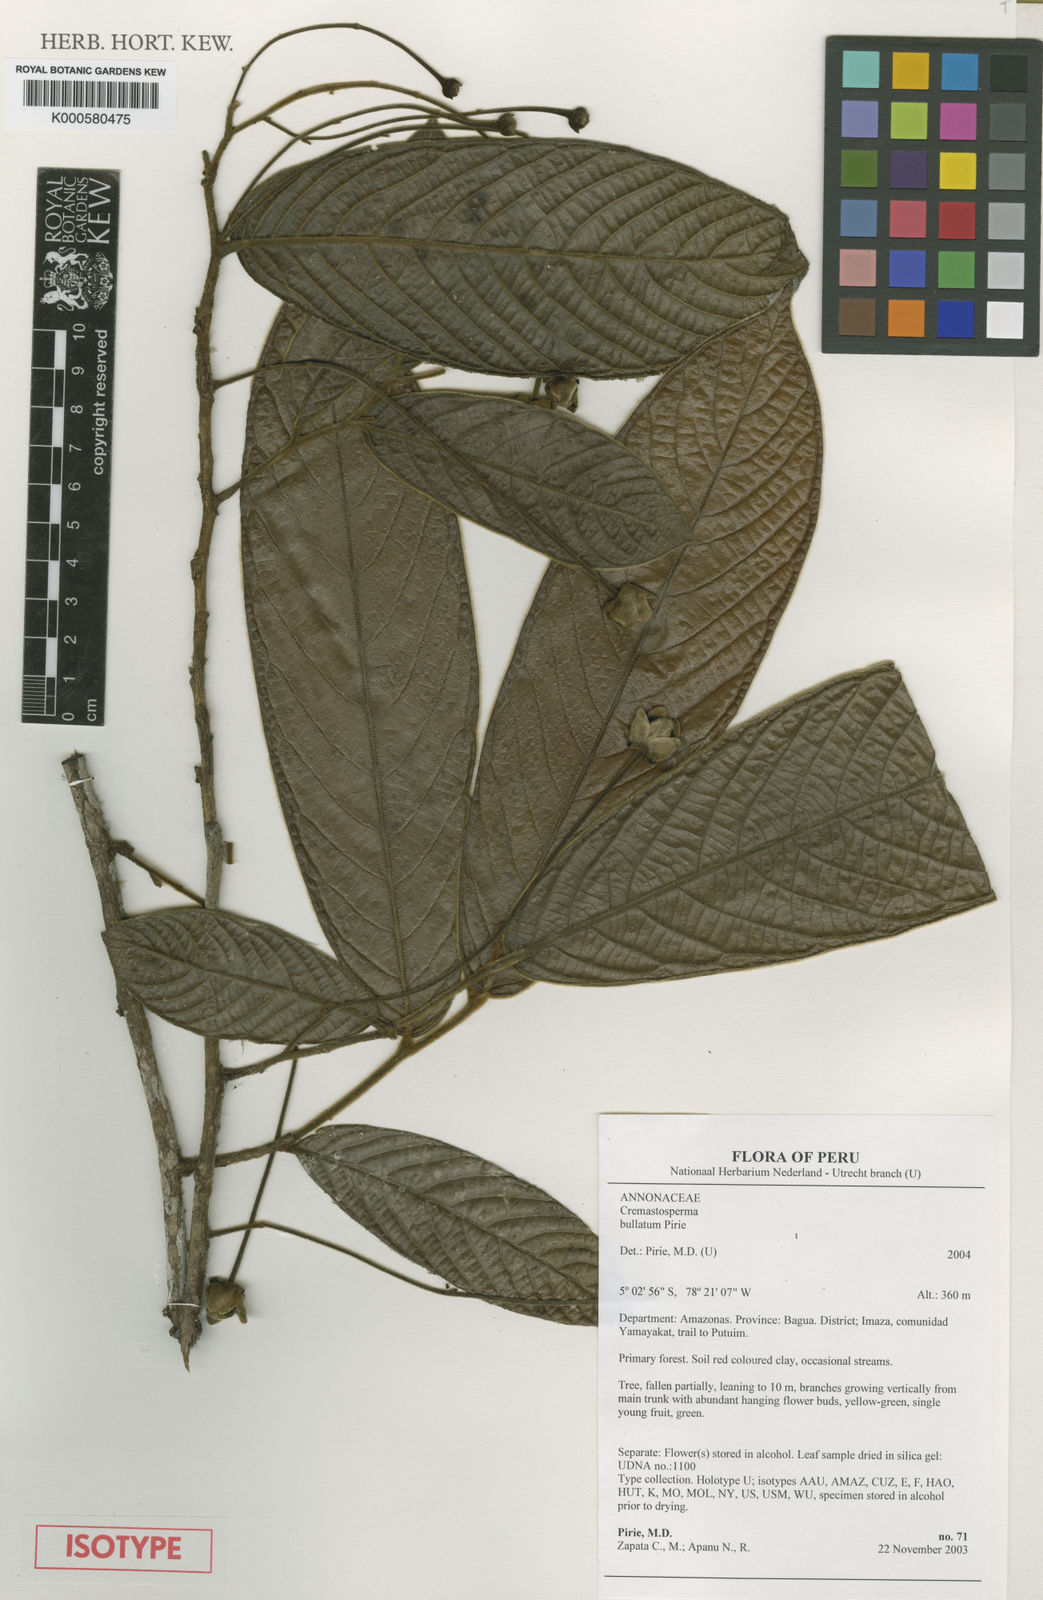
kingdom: Plantae
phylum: Tracheophyta
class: Magnoliopsida
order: Magnoliales
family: Annonaceae
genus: Cremastosperma
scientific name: Cremastosperma bullatum
